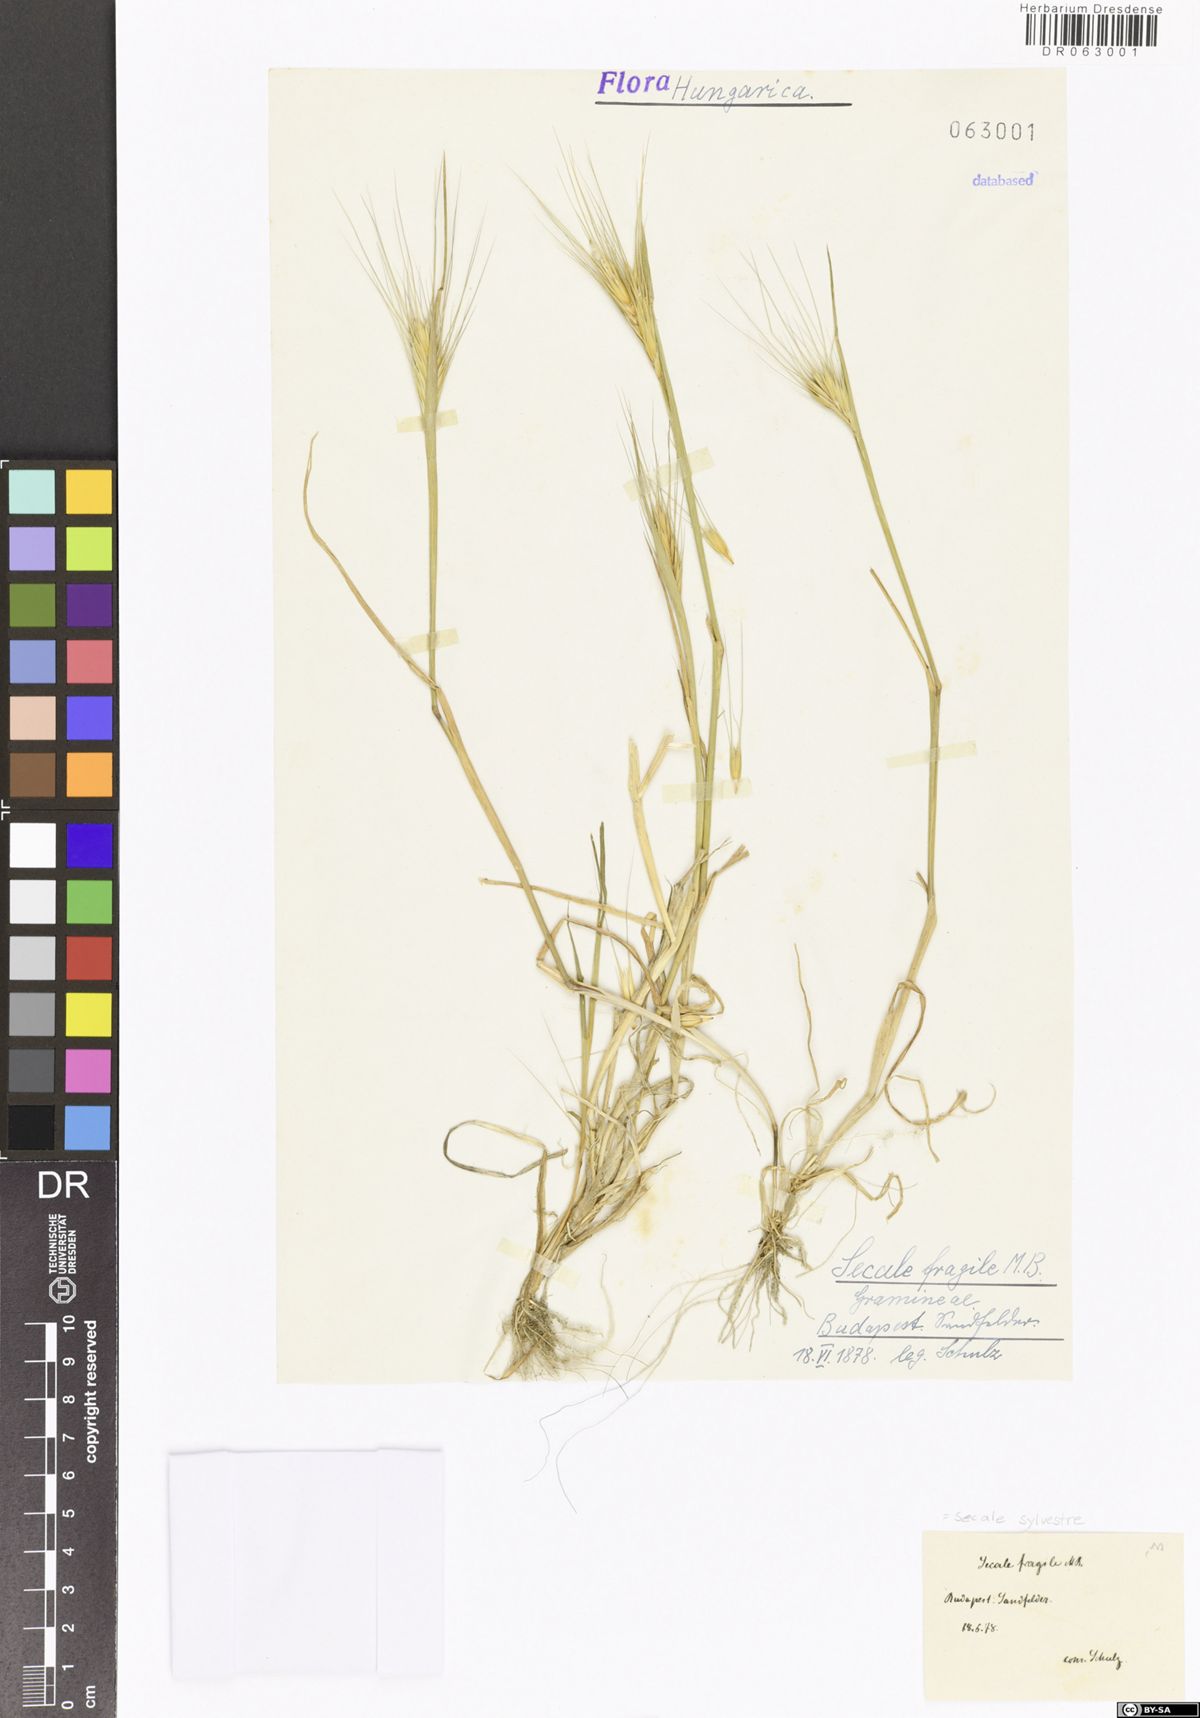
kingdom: Plantae
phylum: Tracheophyta
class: Liliopsida
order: Poales
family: Poaceae
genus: Secale
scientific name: Secale sylvestre
